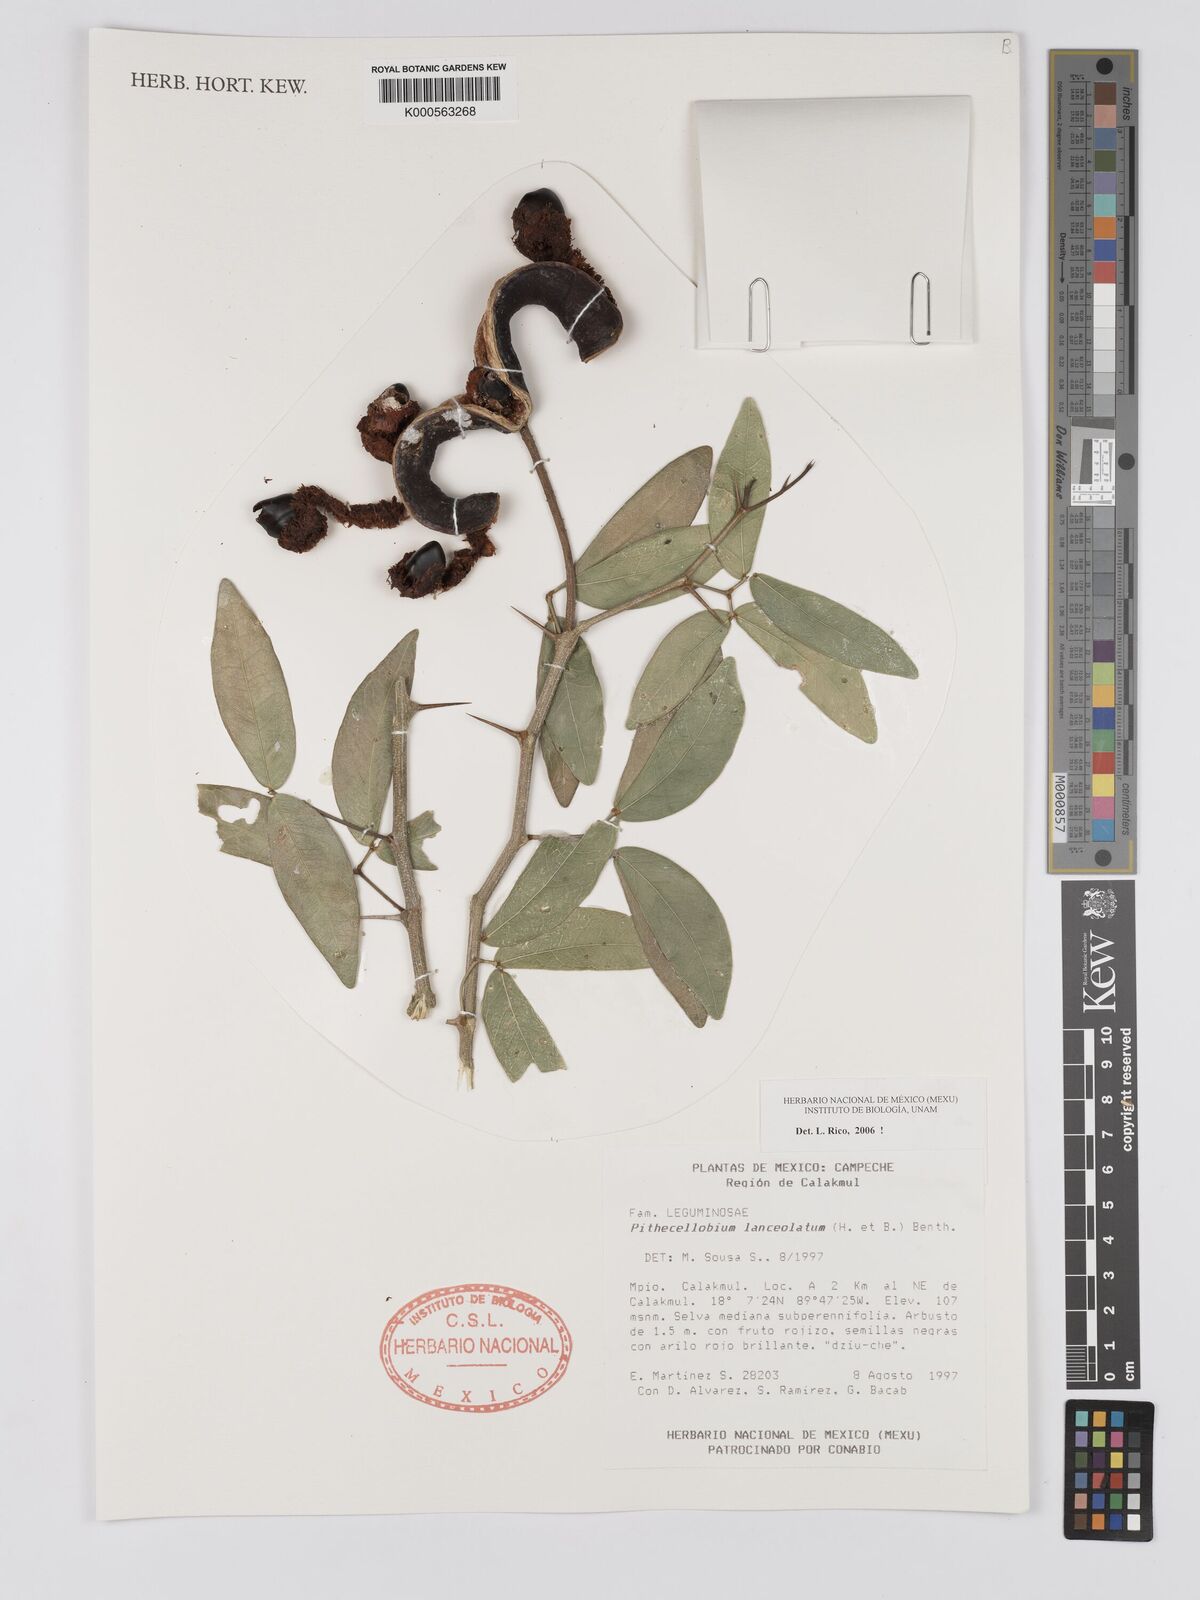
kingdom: Plantae
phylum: Tracheophyta
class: Magnoliopsida
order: Fabales
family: Fabaceae
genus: Pithecellobium
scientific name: Pithecellobium lanceolatum
